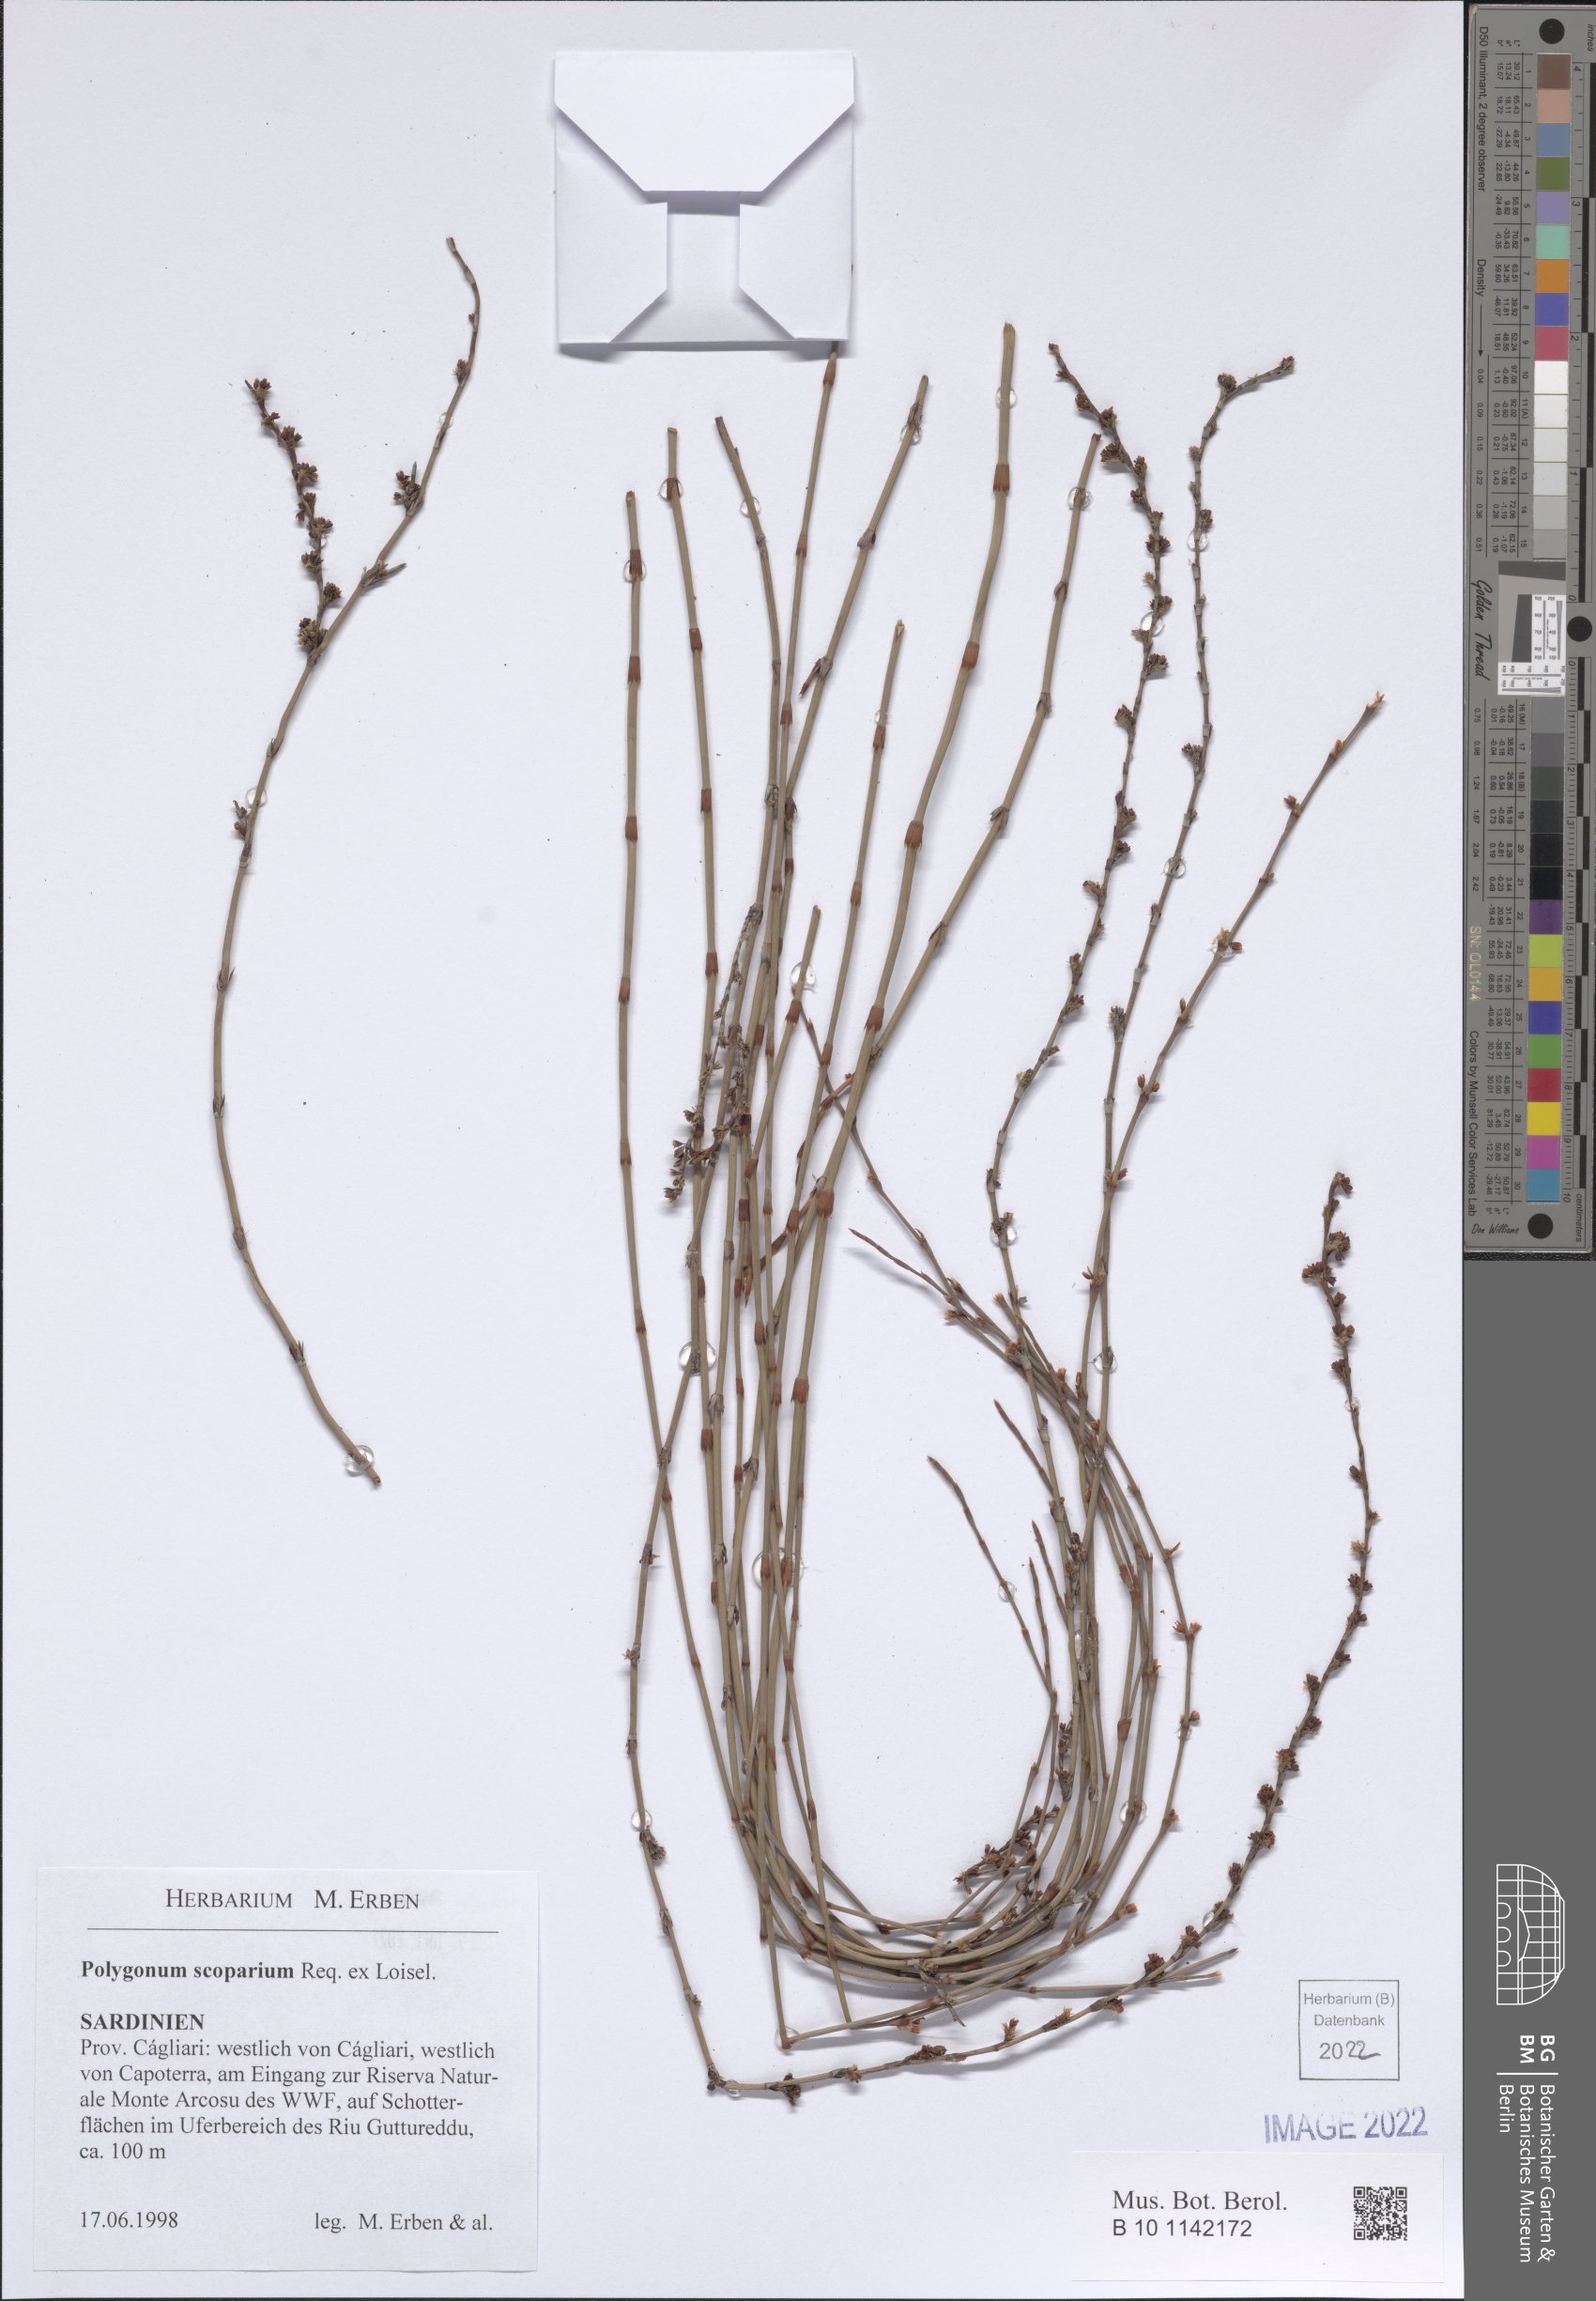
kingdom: Plantae
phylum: Tracheophyta
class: Magnoliopsida
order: Caryophyllales
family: Polygonaceae
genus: Polygonum
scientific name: Polygonum scoparium
